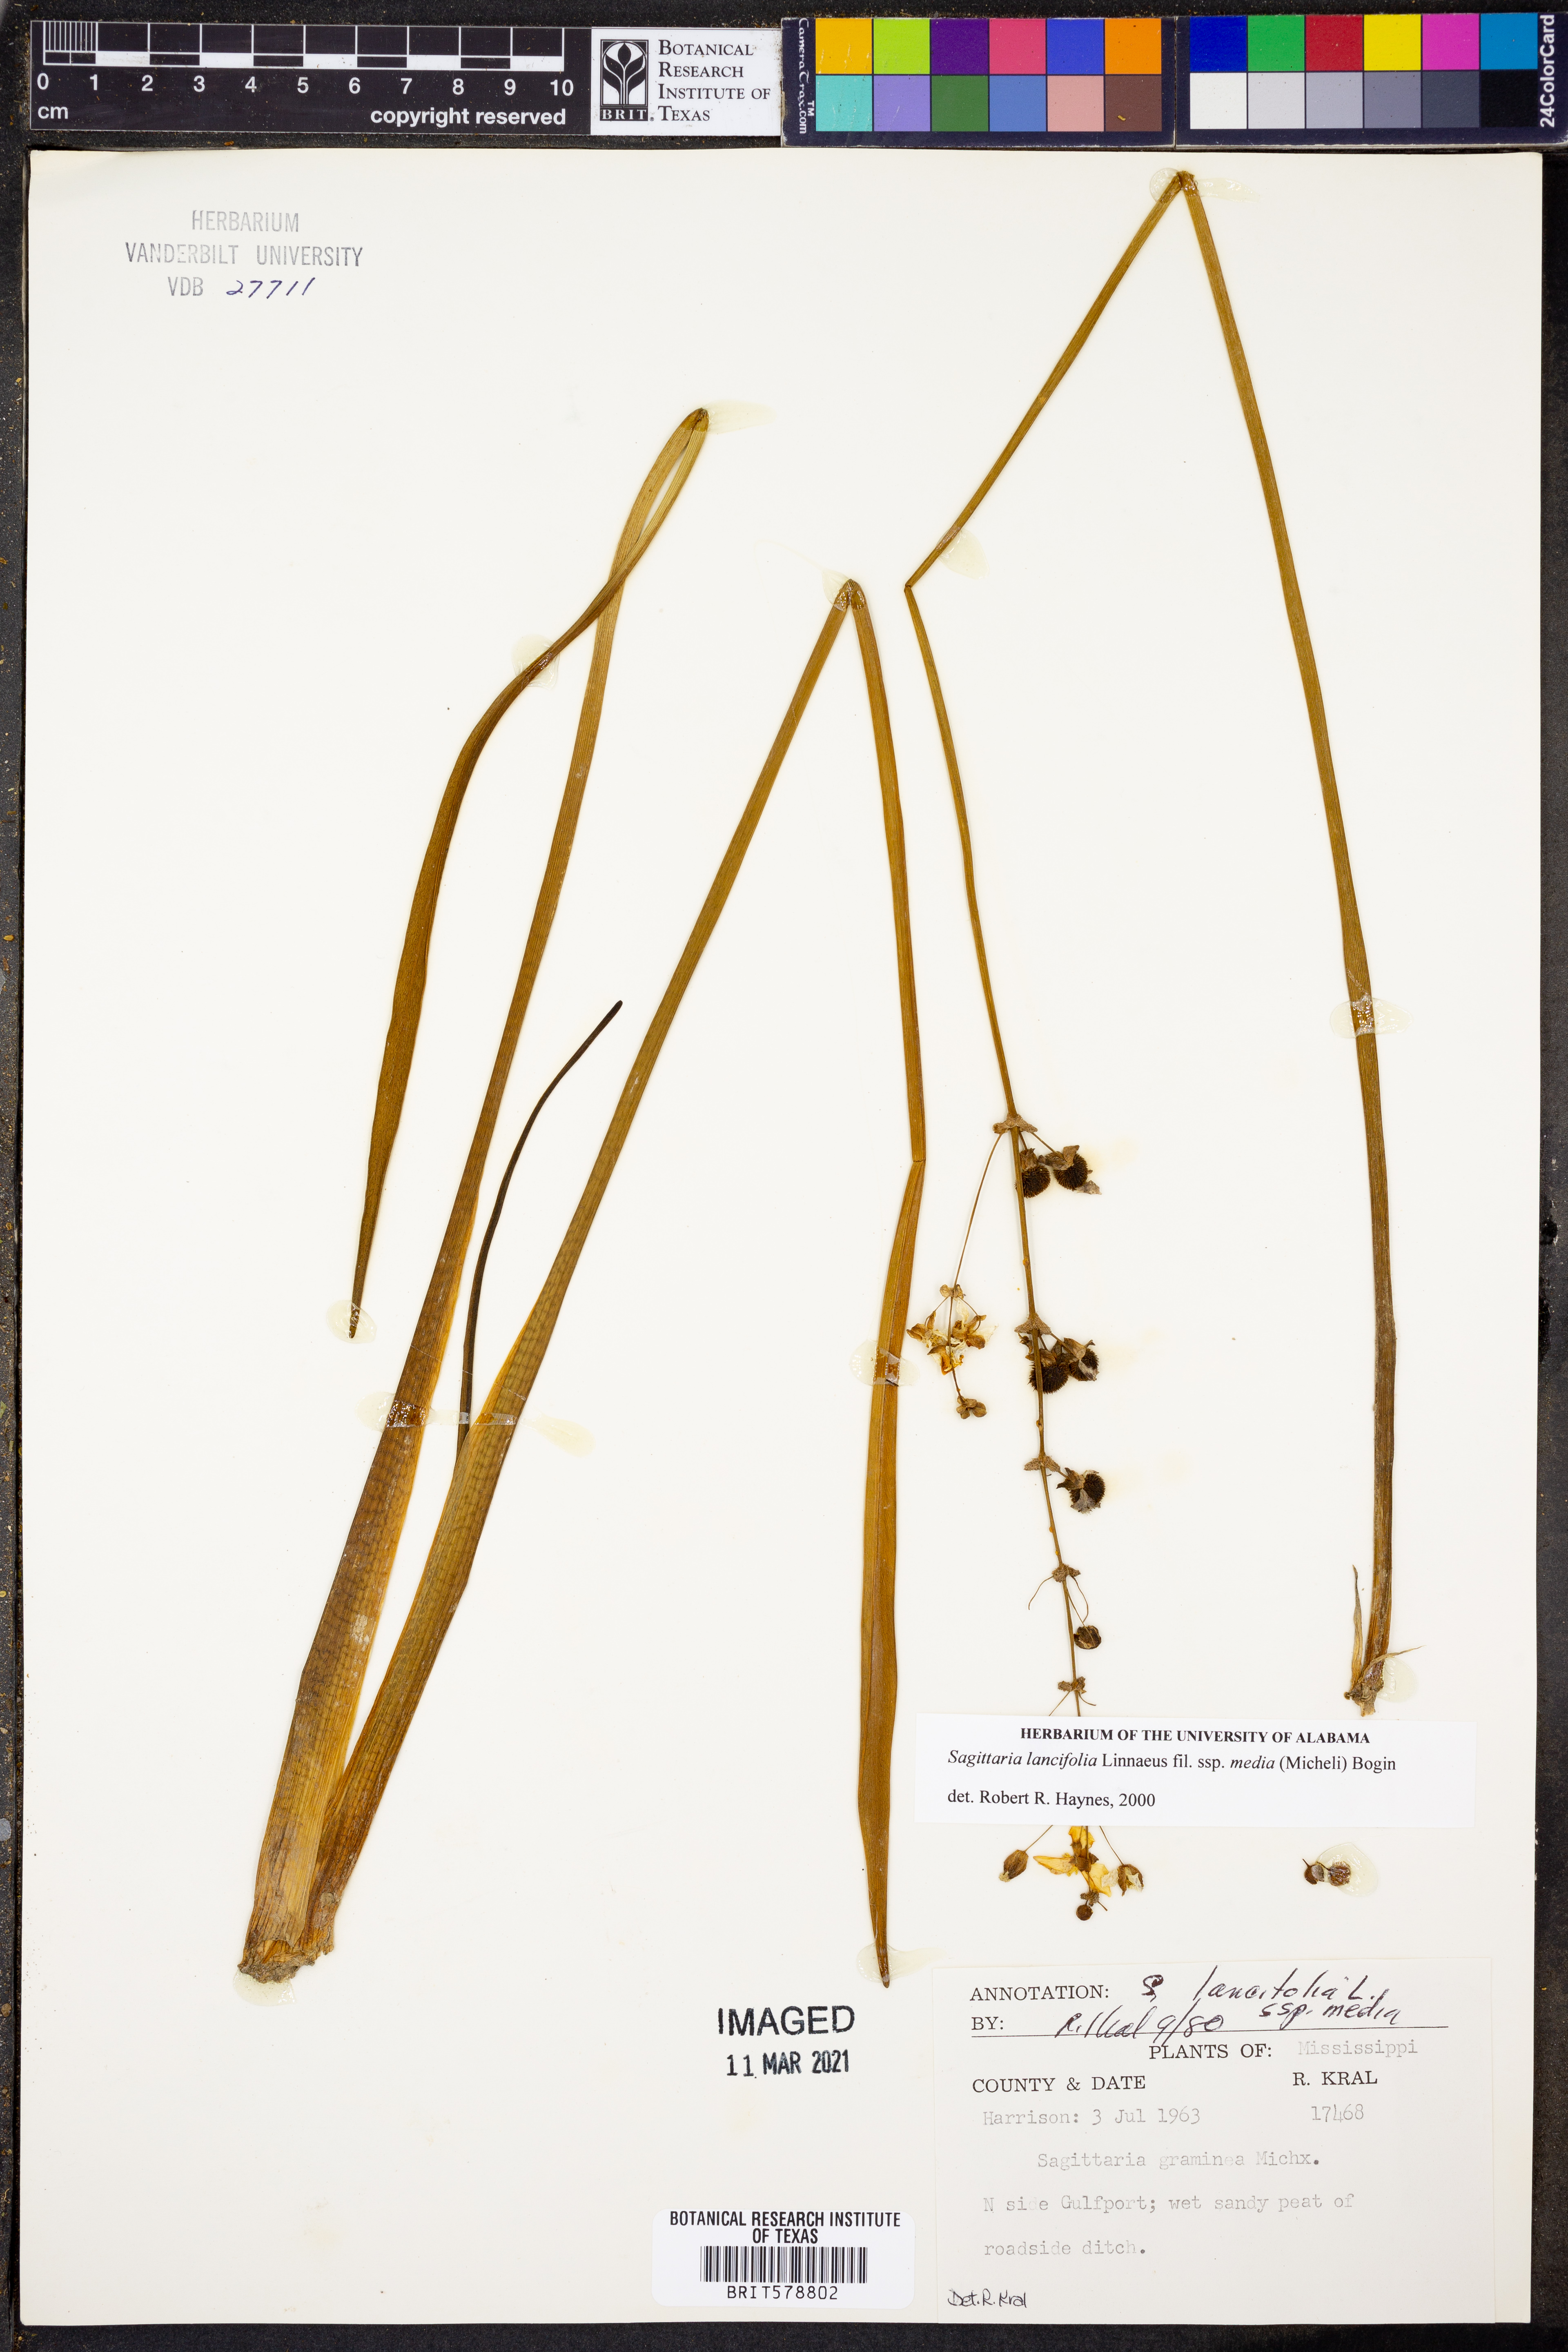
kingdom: Plantae
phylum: Tracheophyta
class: Liliopsida
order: Alismatales
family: Alismataceae
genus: Sagittaria
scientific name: Sagittaria lancifolia
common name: Lance-leaf arrowhead
